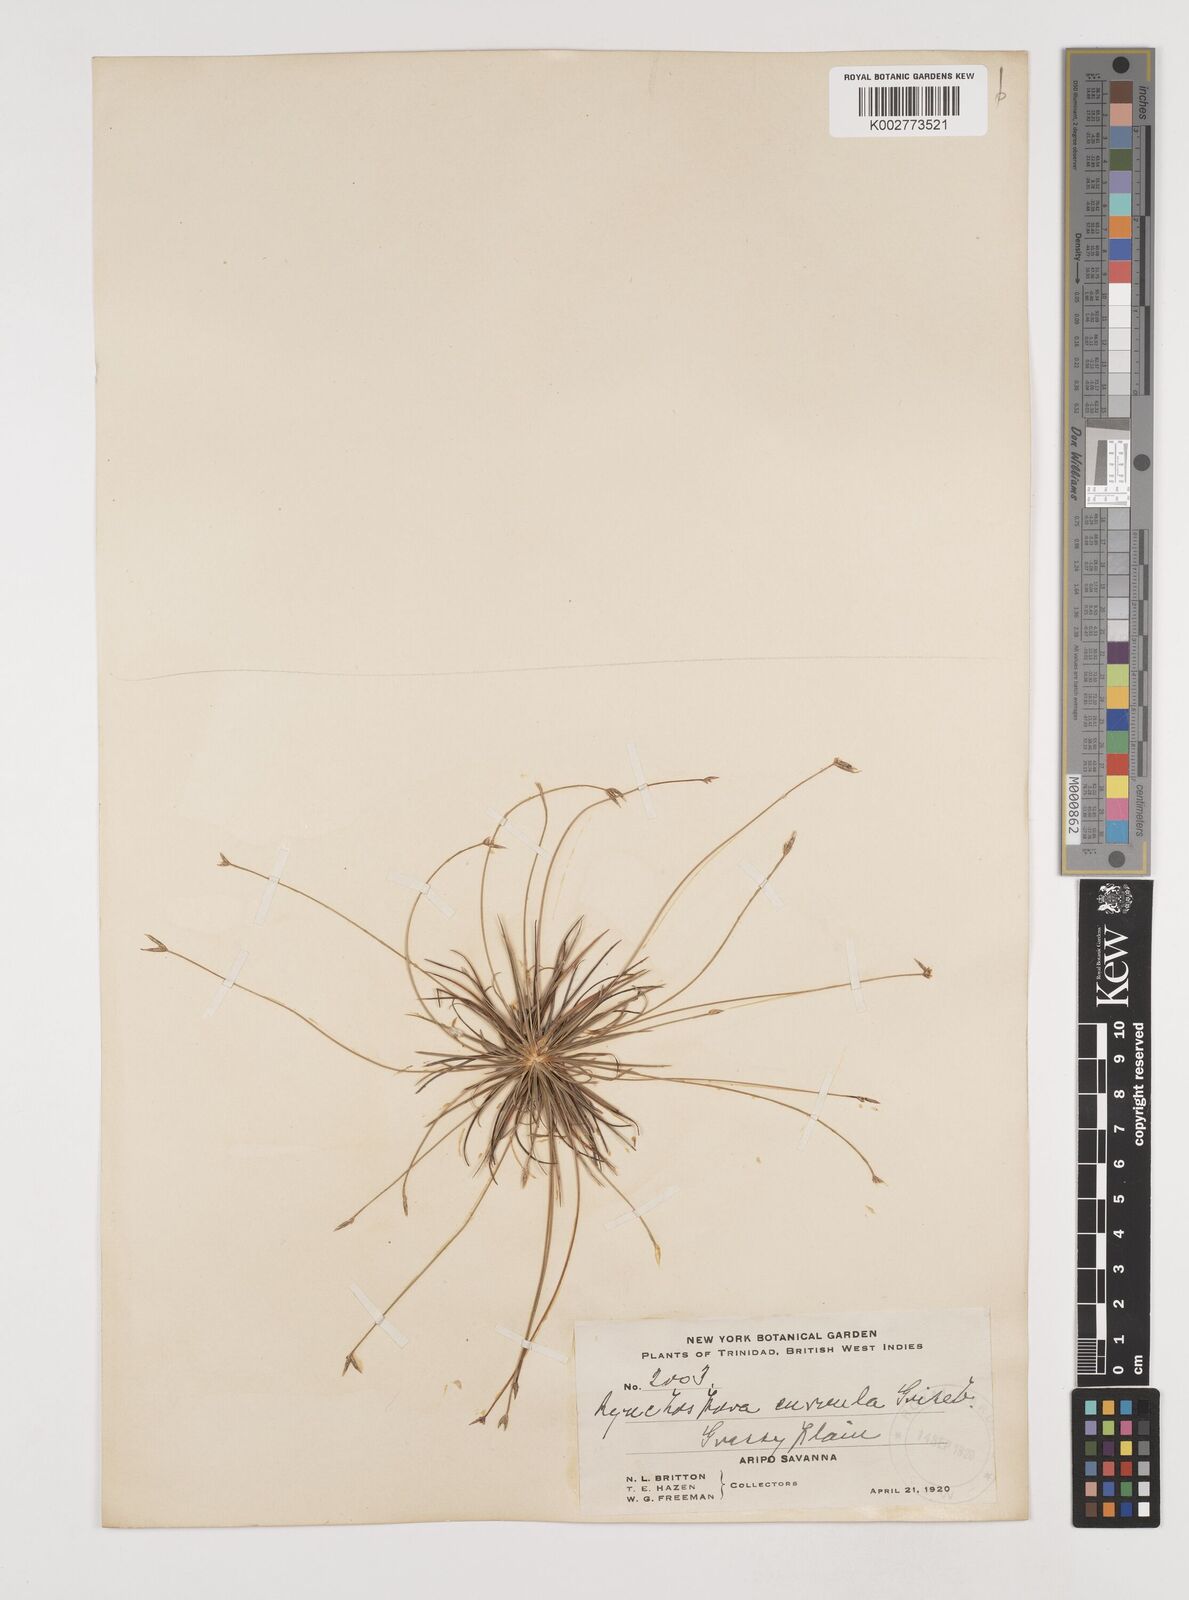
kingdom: Plantae
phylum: Tracheophyta
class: Liliopsida
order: Poales
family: Cyperaceae
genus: Rhynchospora
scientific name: Rhynchospora tenuis
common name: Quill beaksedge
